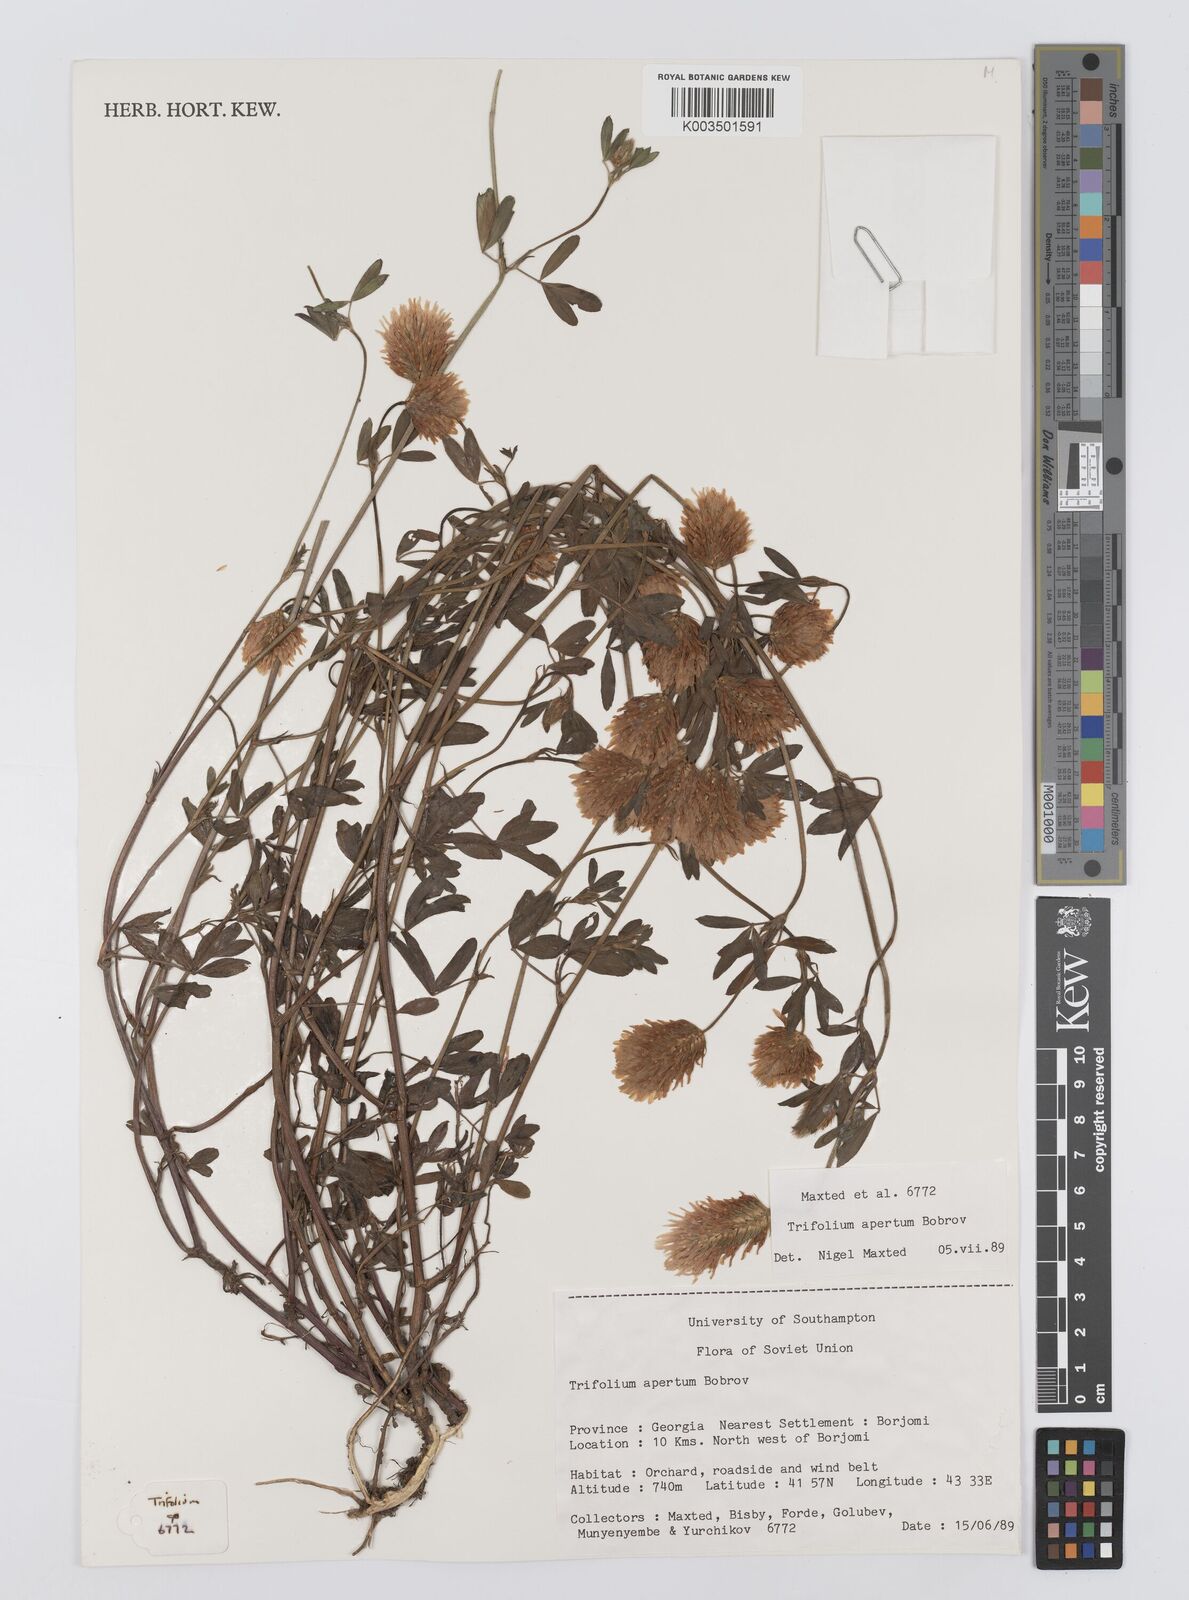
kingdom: Plantae
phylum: Tracheophyta
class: Magnoliopsida
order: Fabales
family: Fabaceae
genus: Trifolium
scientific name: Trifolium apertum
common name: Open clover
